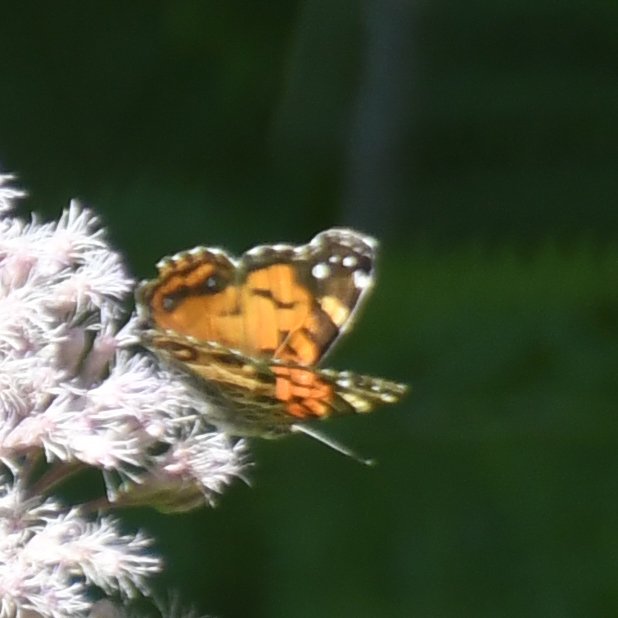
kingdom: Animalia
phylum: Arthropoda
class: Insecta
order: Lepidoptera
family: Nymphalidae
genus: Vanessa
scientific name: Vanessa virginiensis
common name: American Lady
